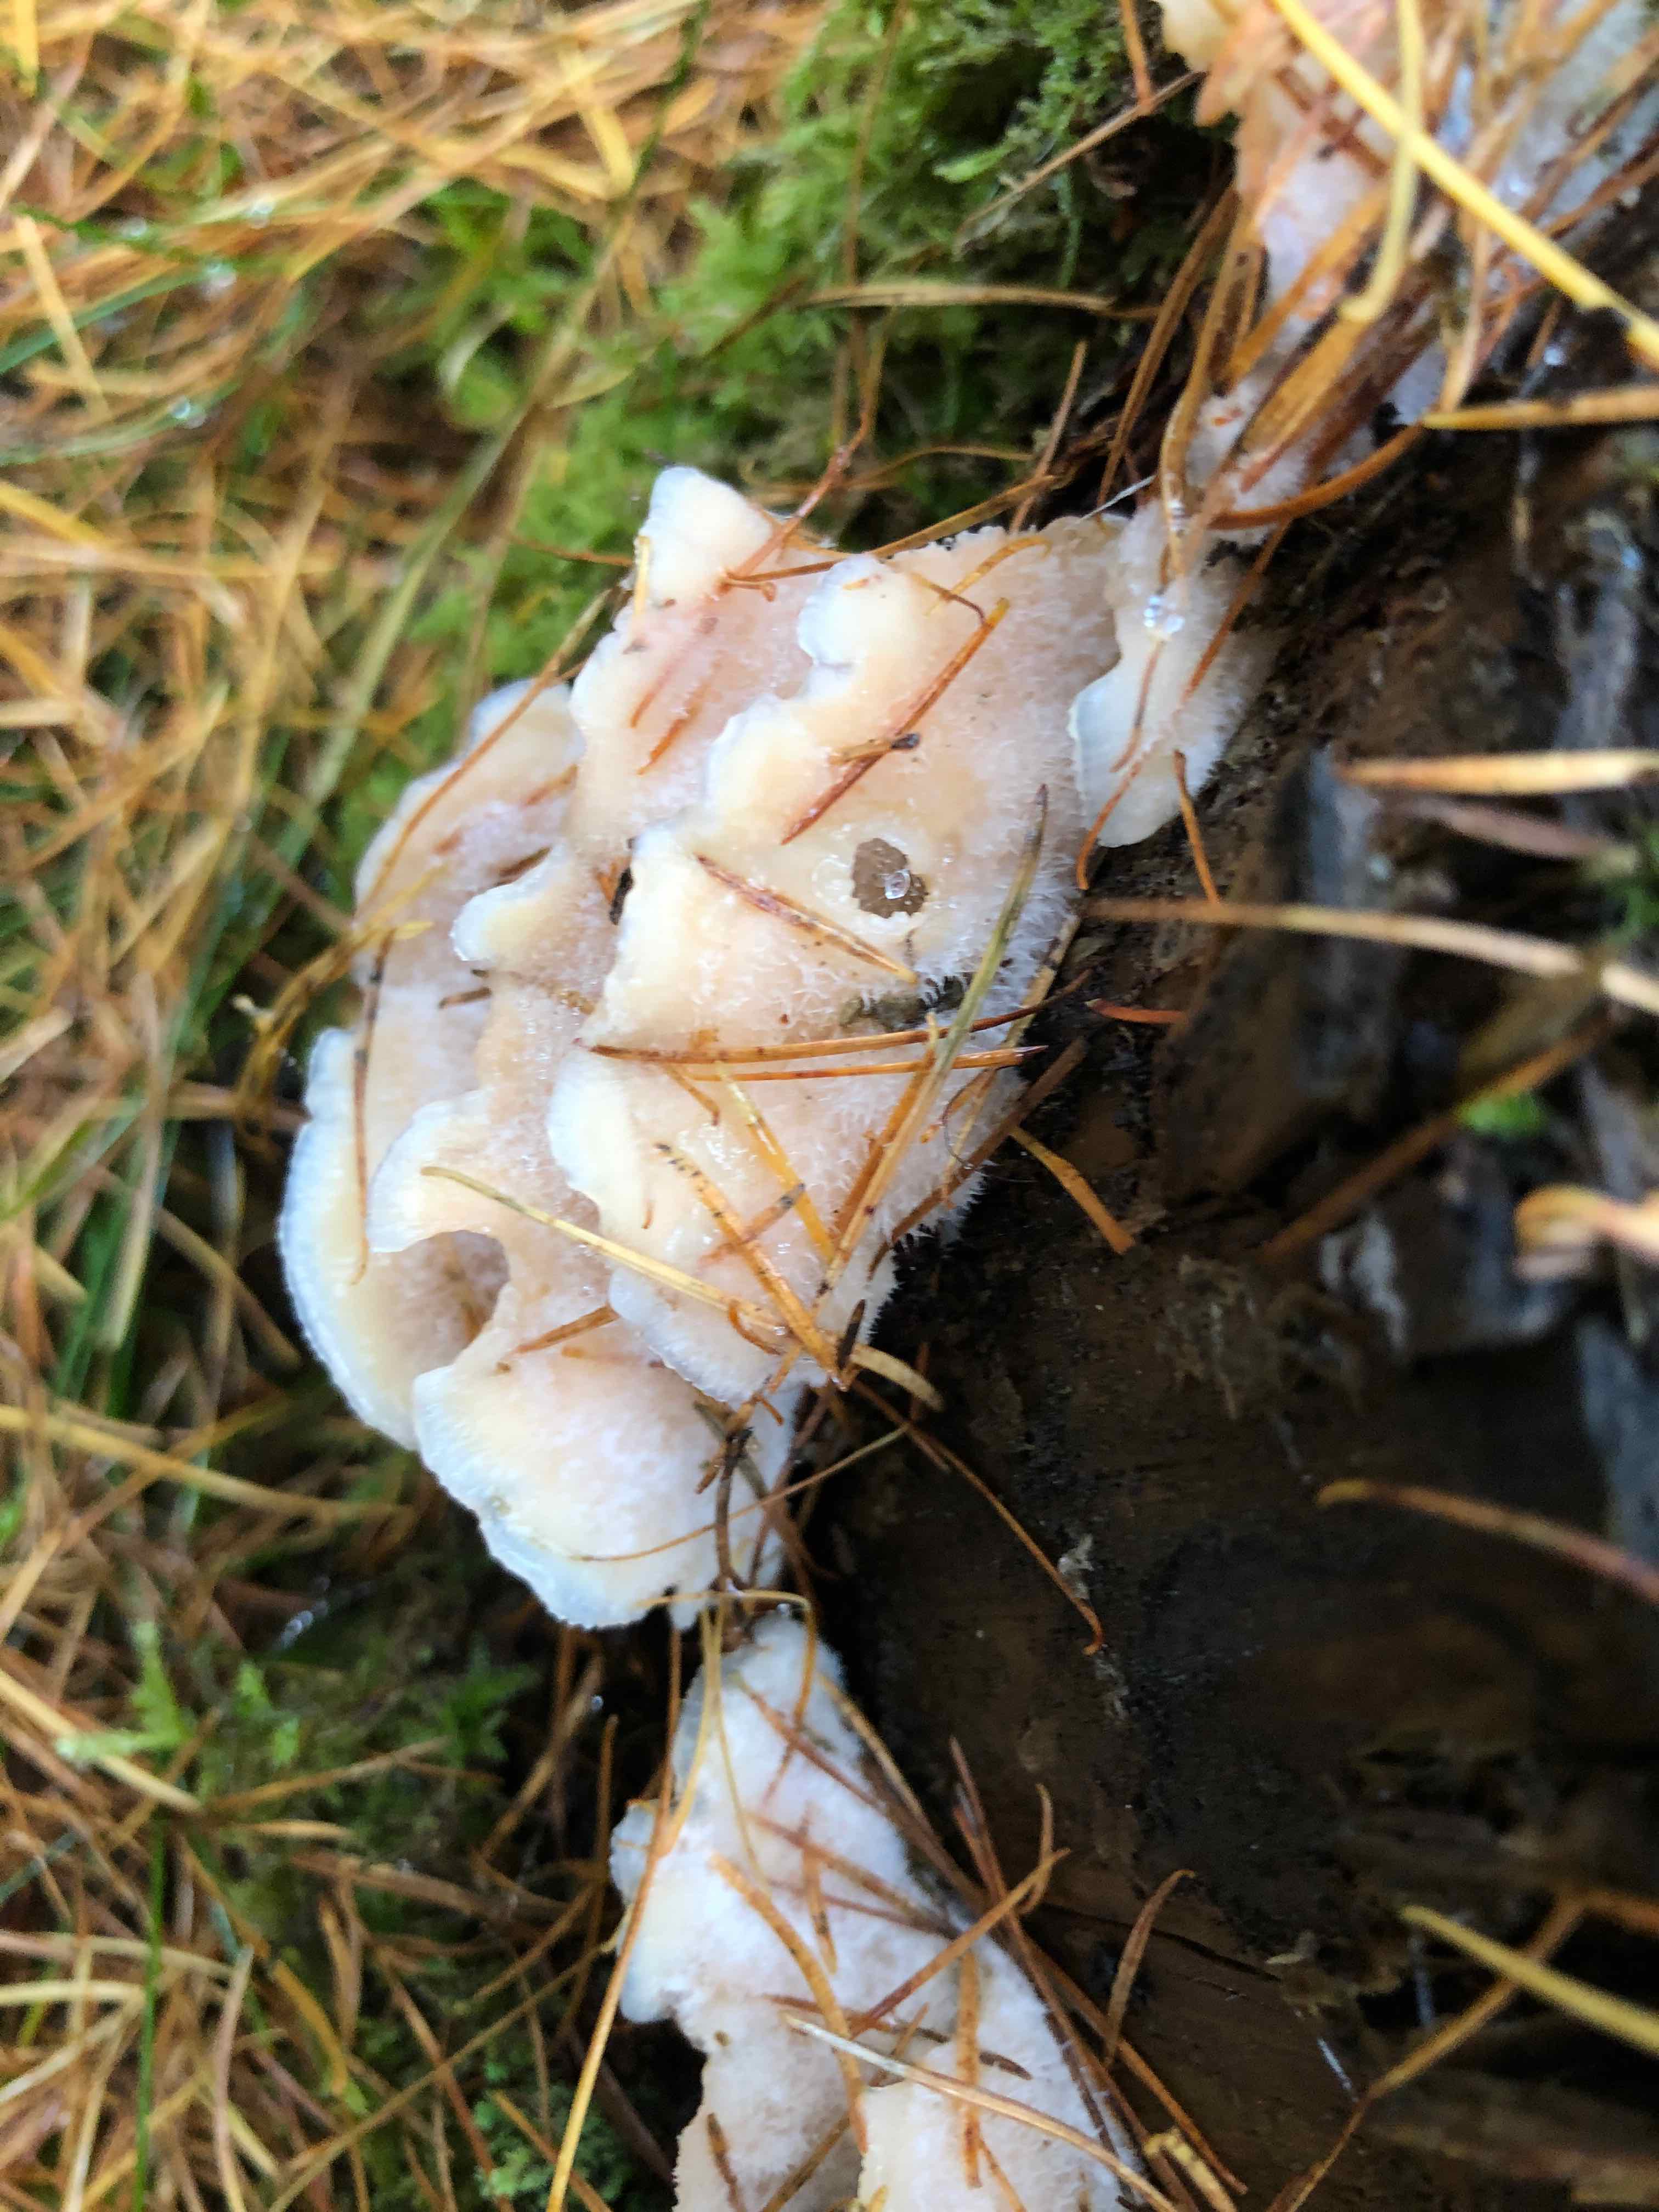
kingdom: Fungi
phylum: Basidiomycota
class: Agaricomycetes
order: Polyporales
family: Meruliaceae
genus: Phlebia
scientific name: Phlebia tremellosa
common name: bævrende åresvamp
